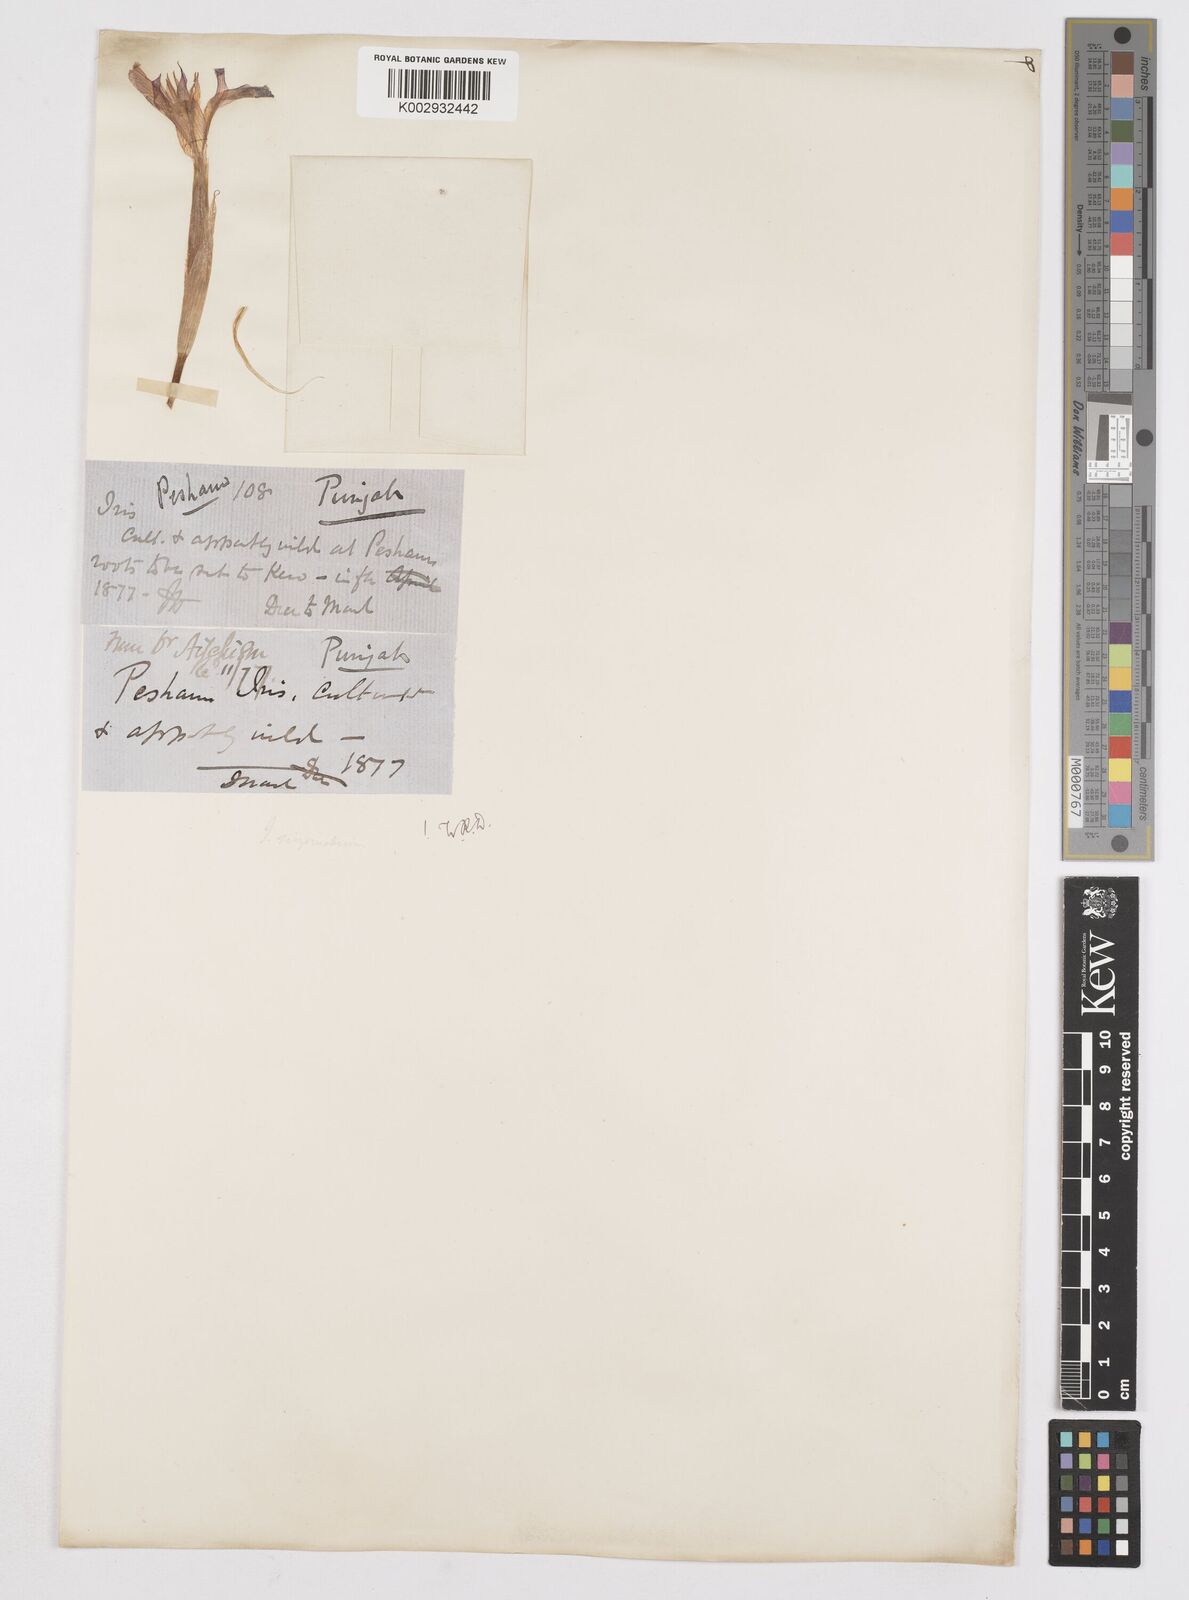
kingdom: Plantae
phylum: Tracheophyta
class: Liliopsida
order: Asparagales
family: Iridaceae
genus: Moraea
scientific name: Moraea sisyrinchium
